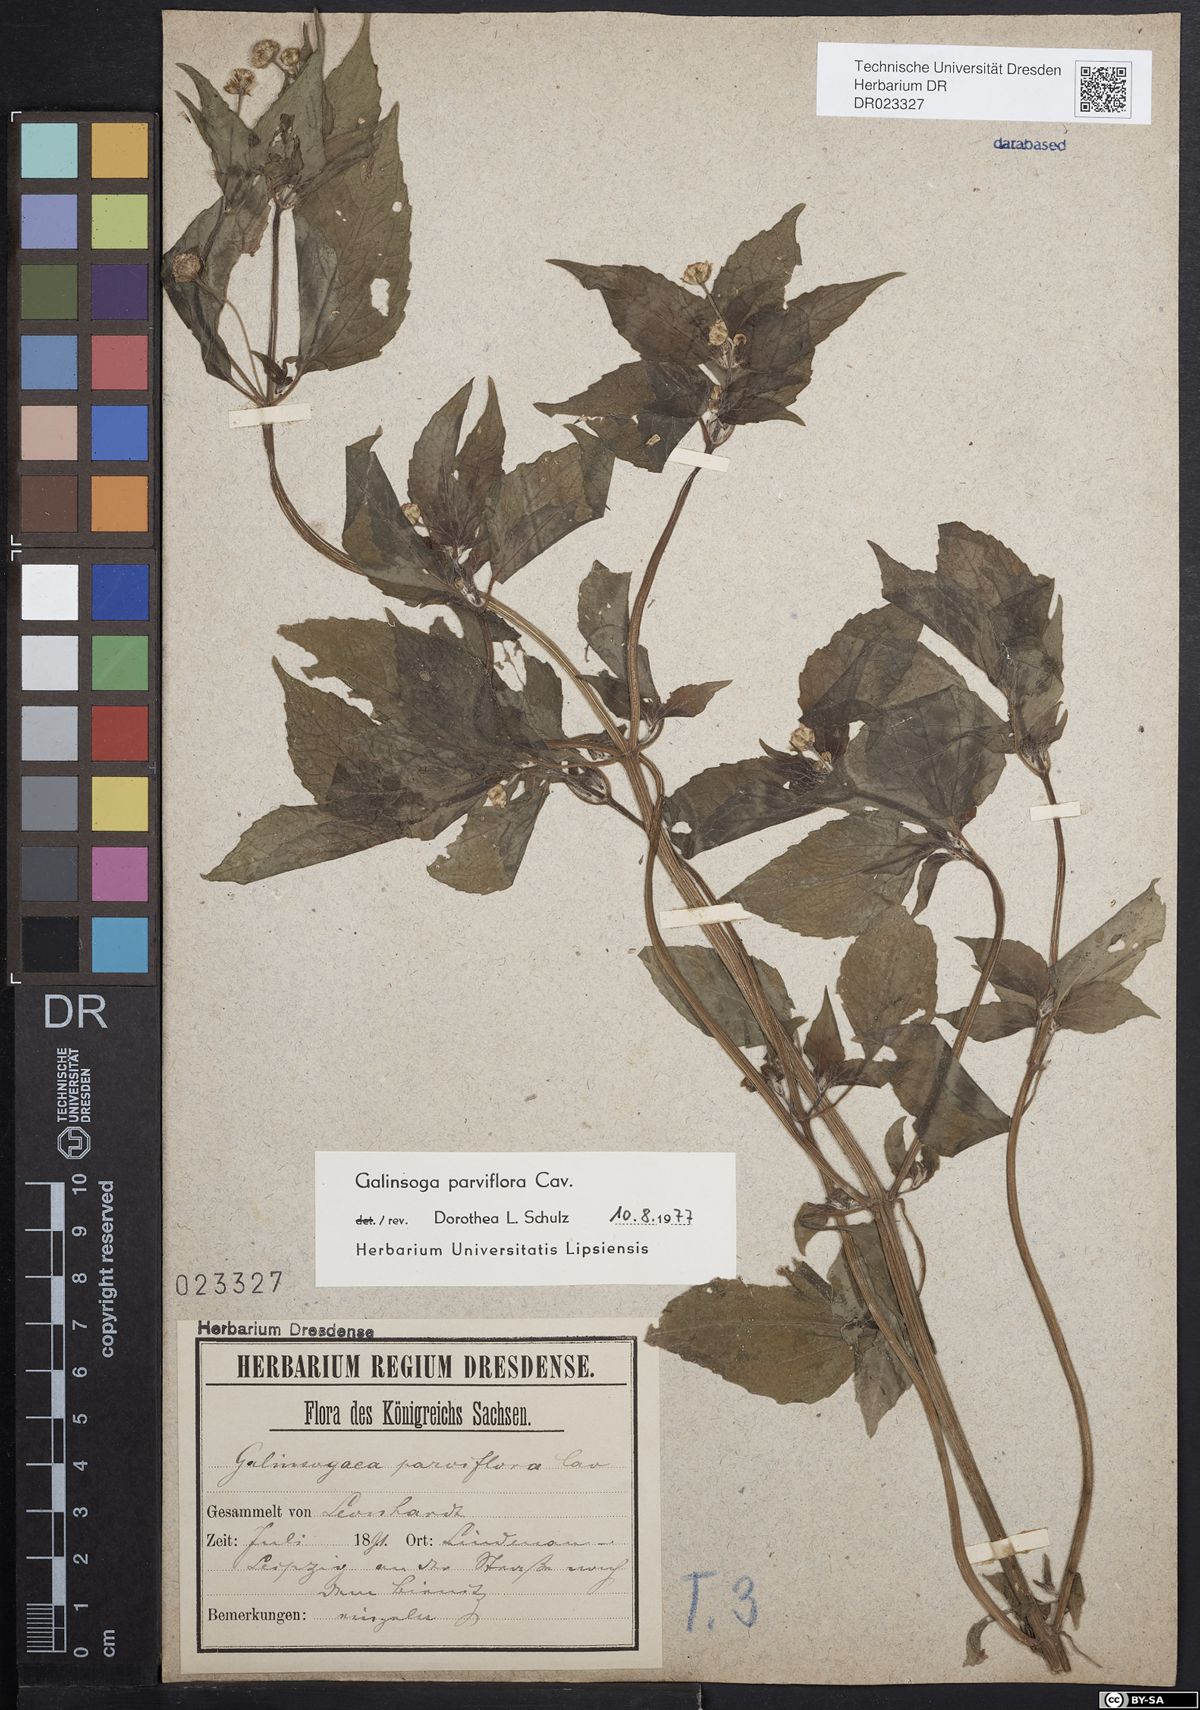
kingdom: Plantae
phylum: Tracheophyta
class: Magnoliopsida
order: Asterales
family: Asteraceae
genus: Galinsoga
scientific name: Galinsoga parviflora
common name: Gallant soldier
